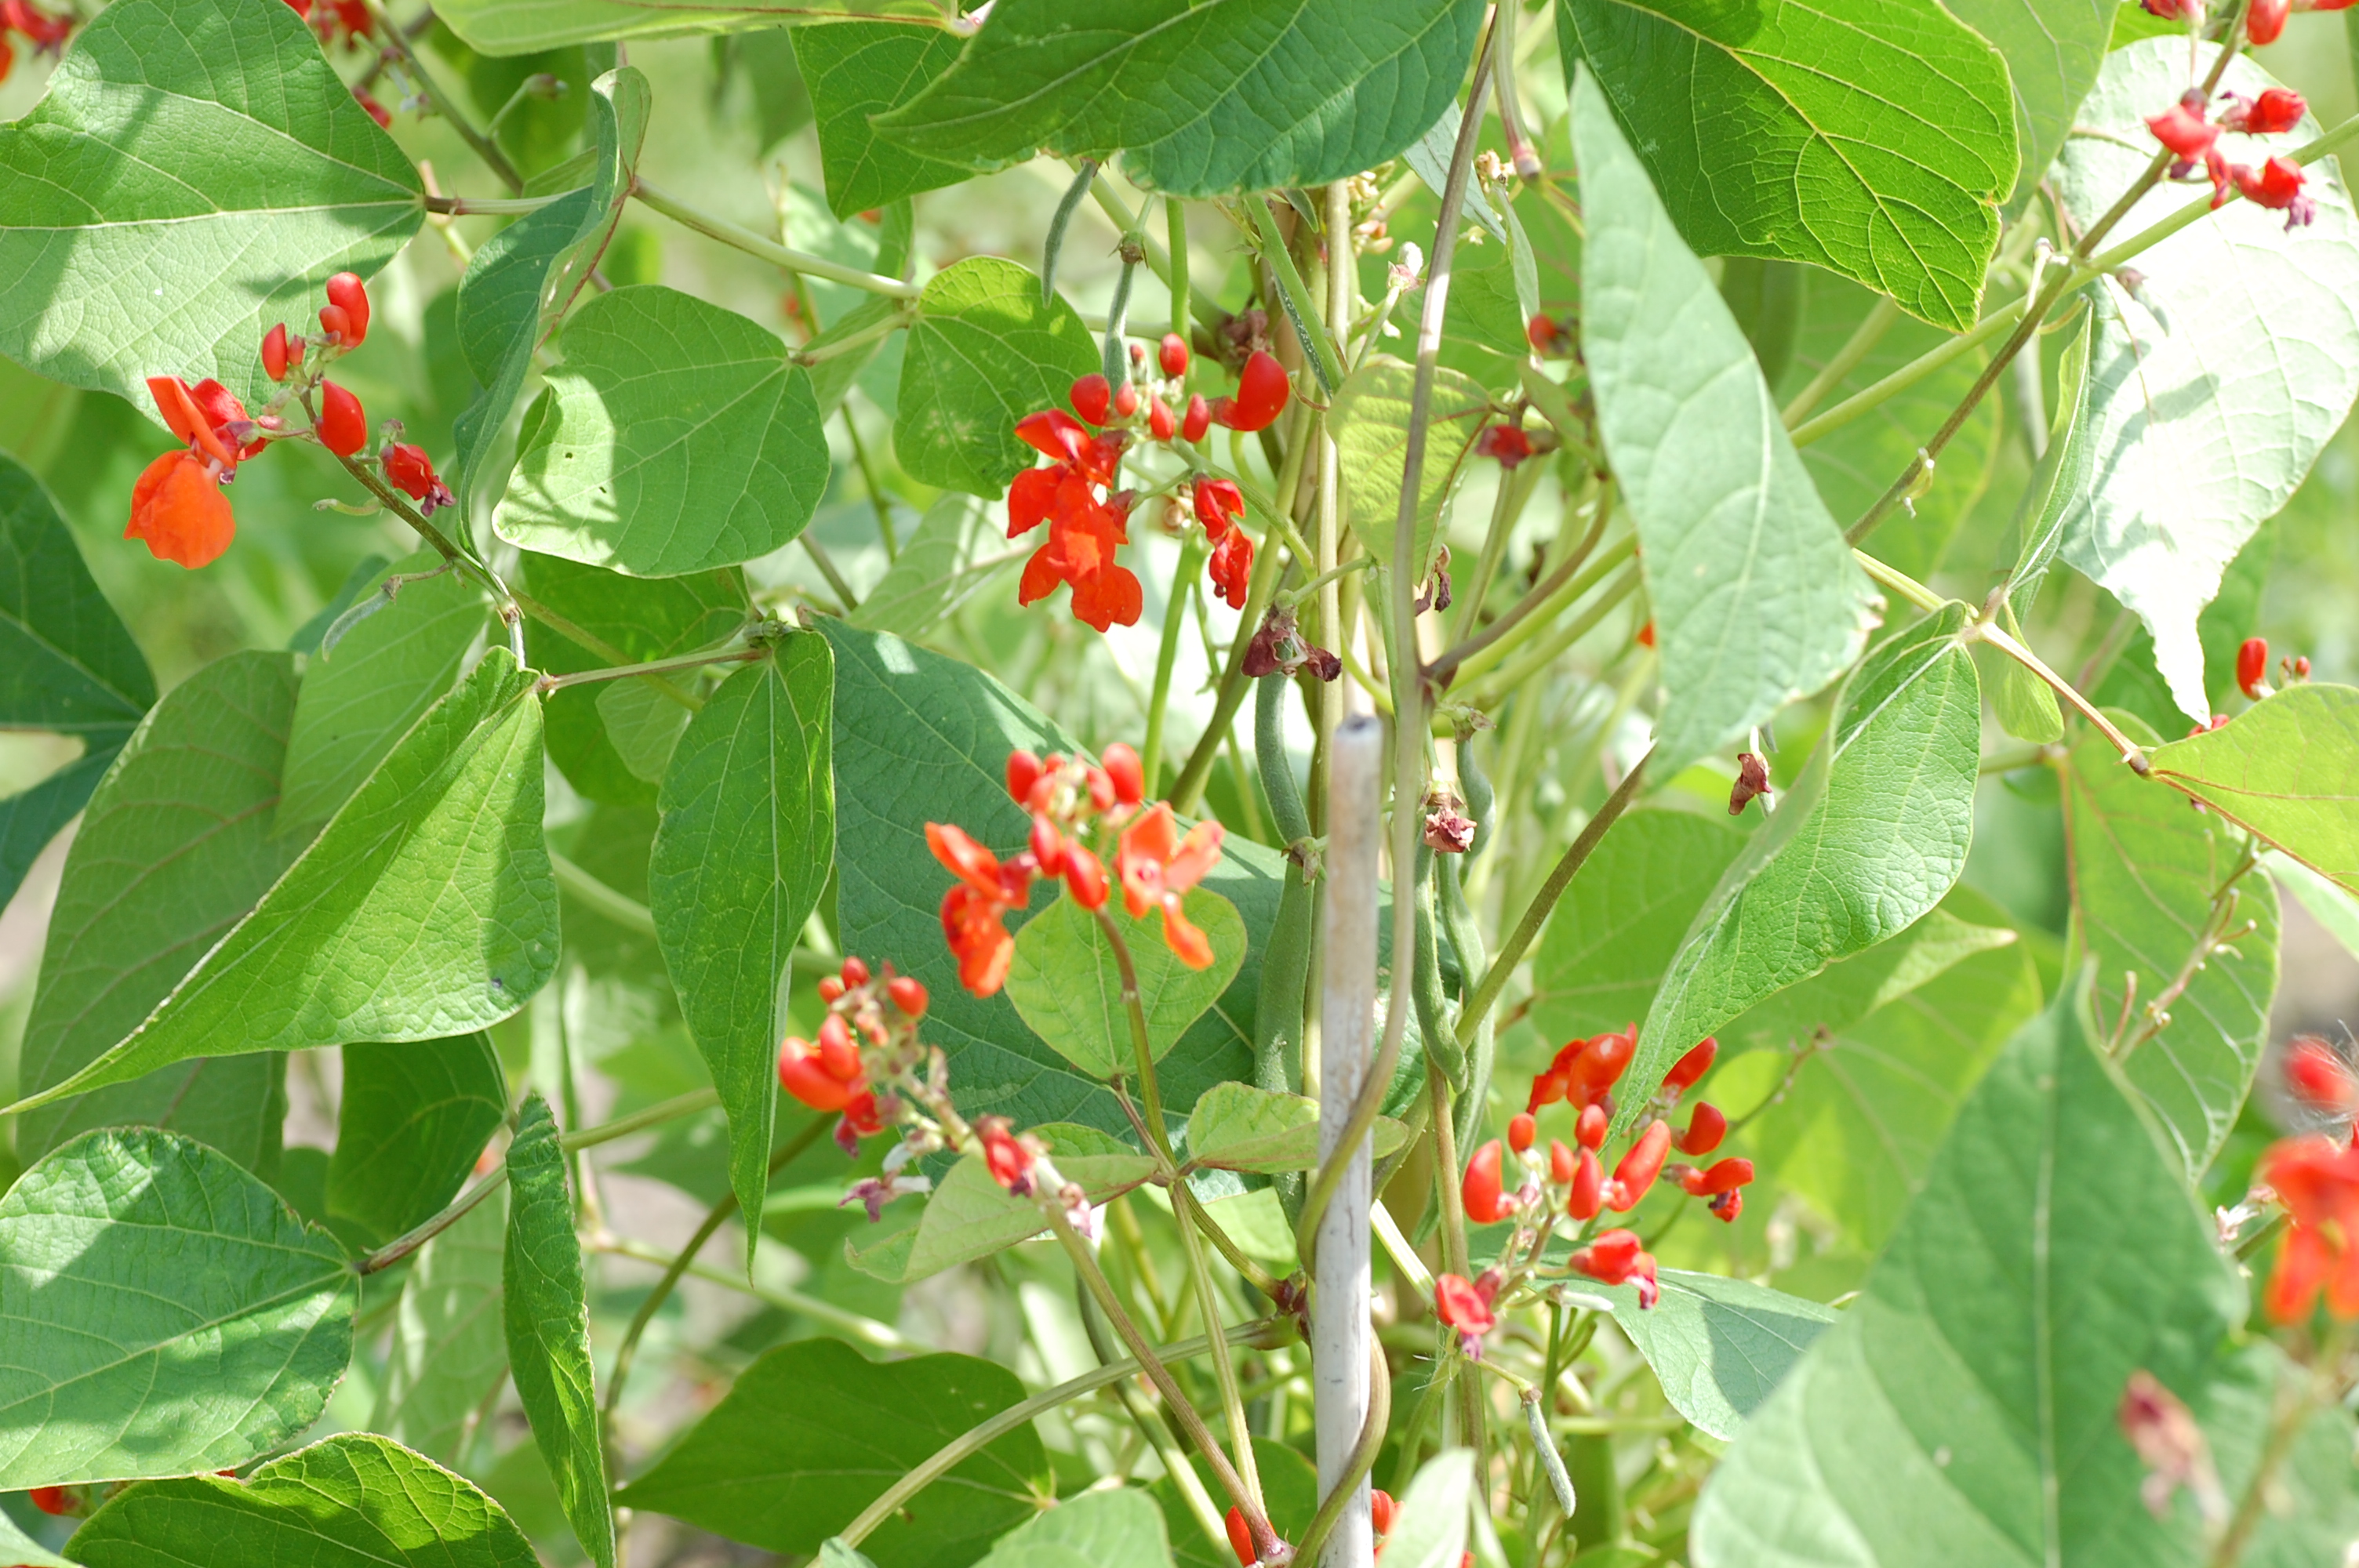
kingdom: Plantae
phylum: Tracheophyta
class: Magnoliopsida
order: Fabales
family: Fabaceae
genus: Phaseolus
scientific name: Phaseolus coccineus
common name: Runner bean
